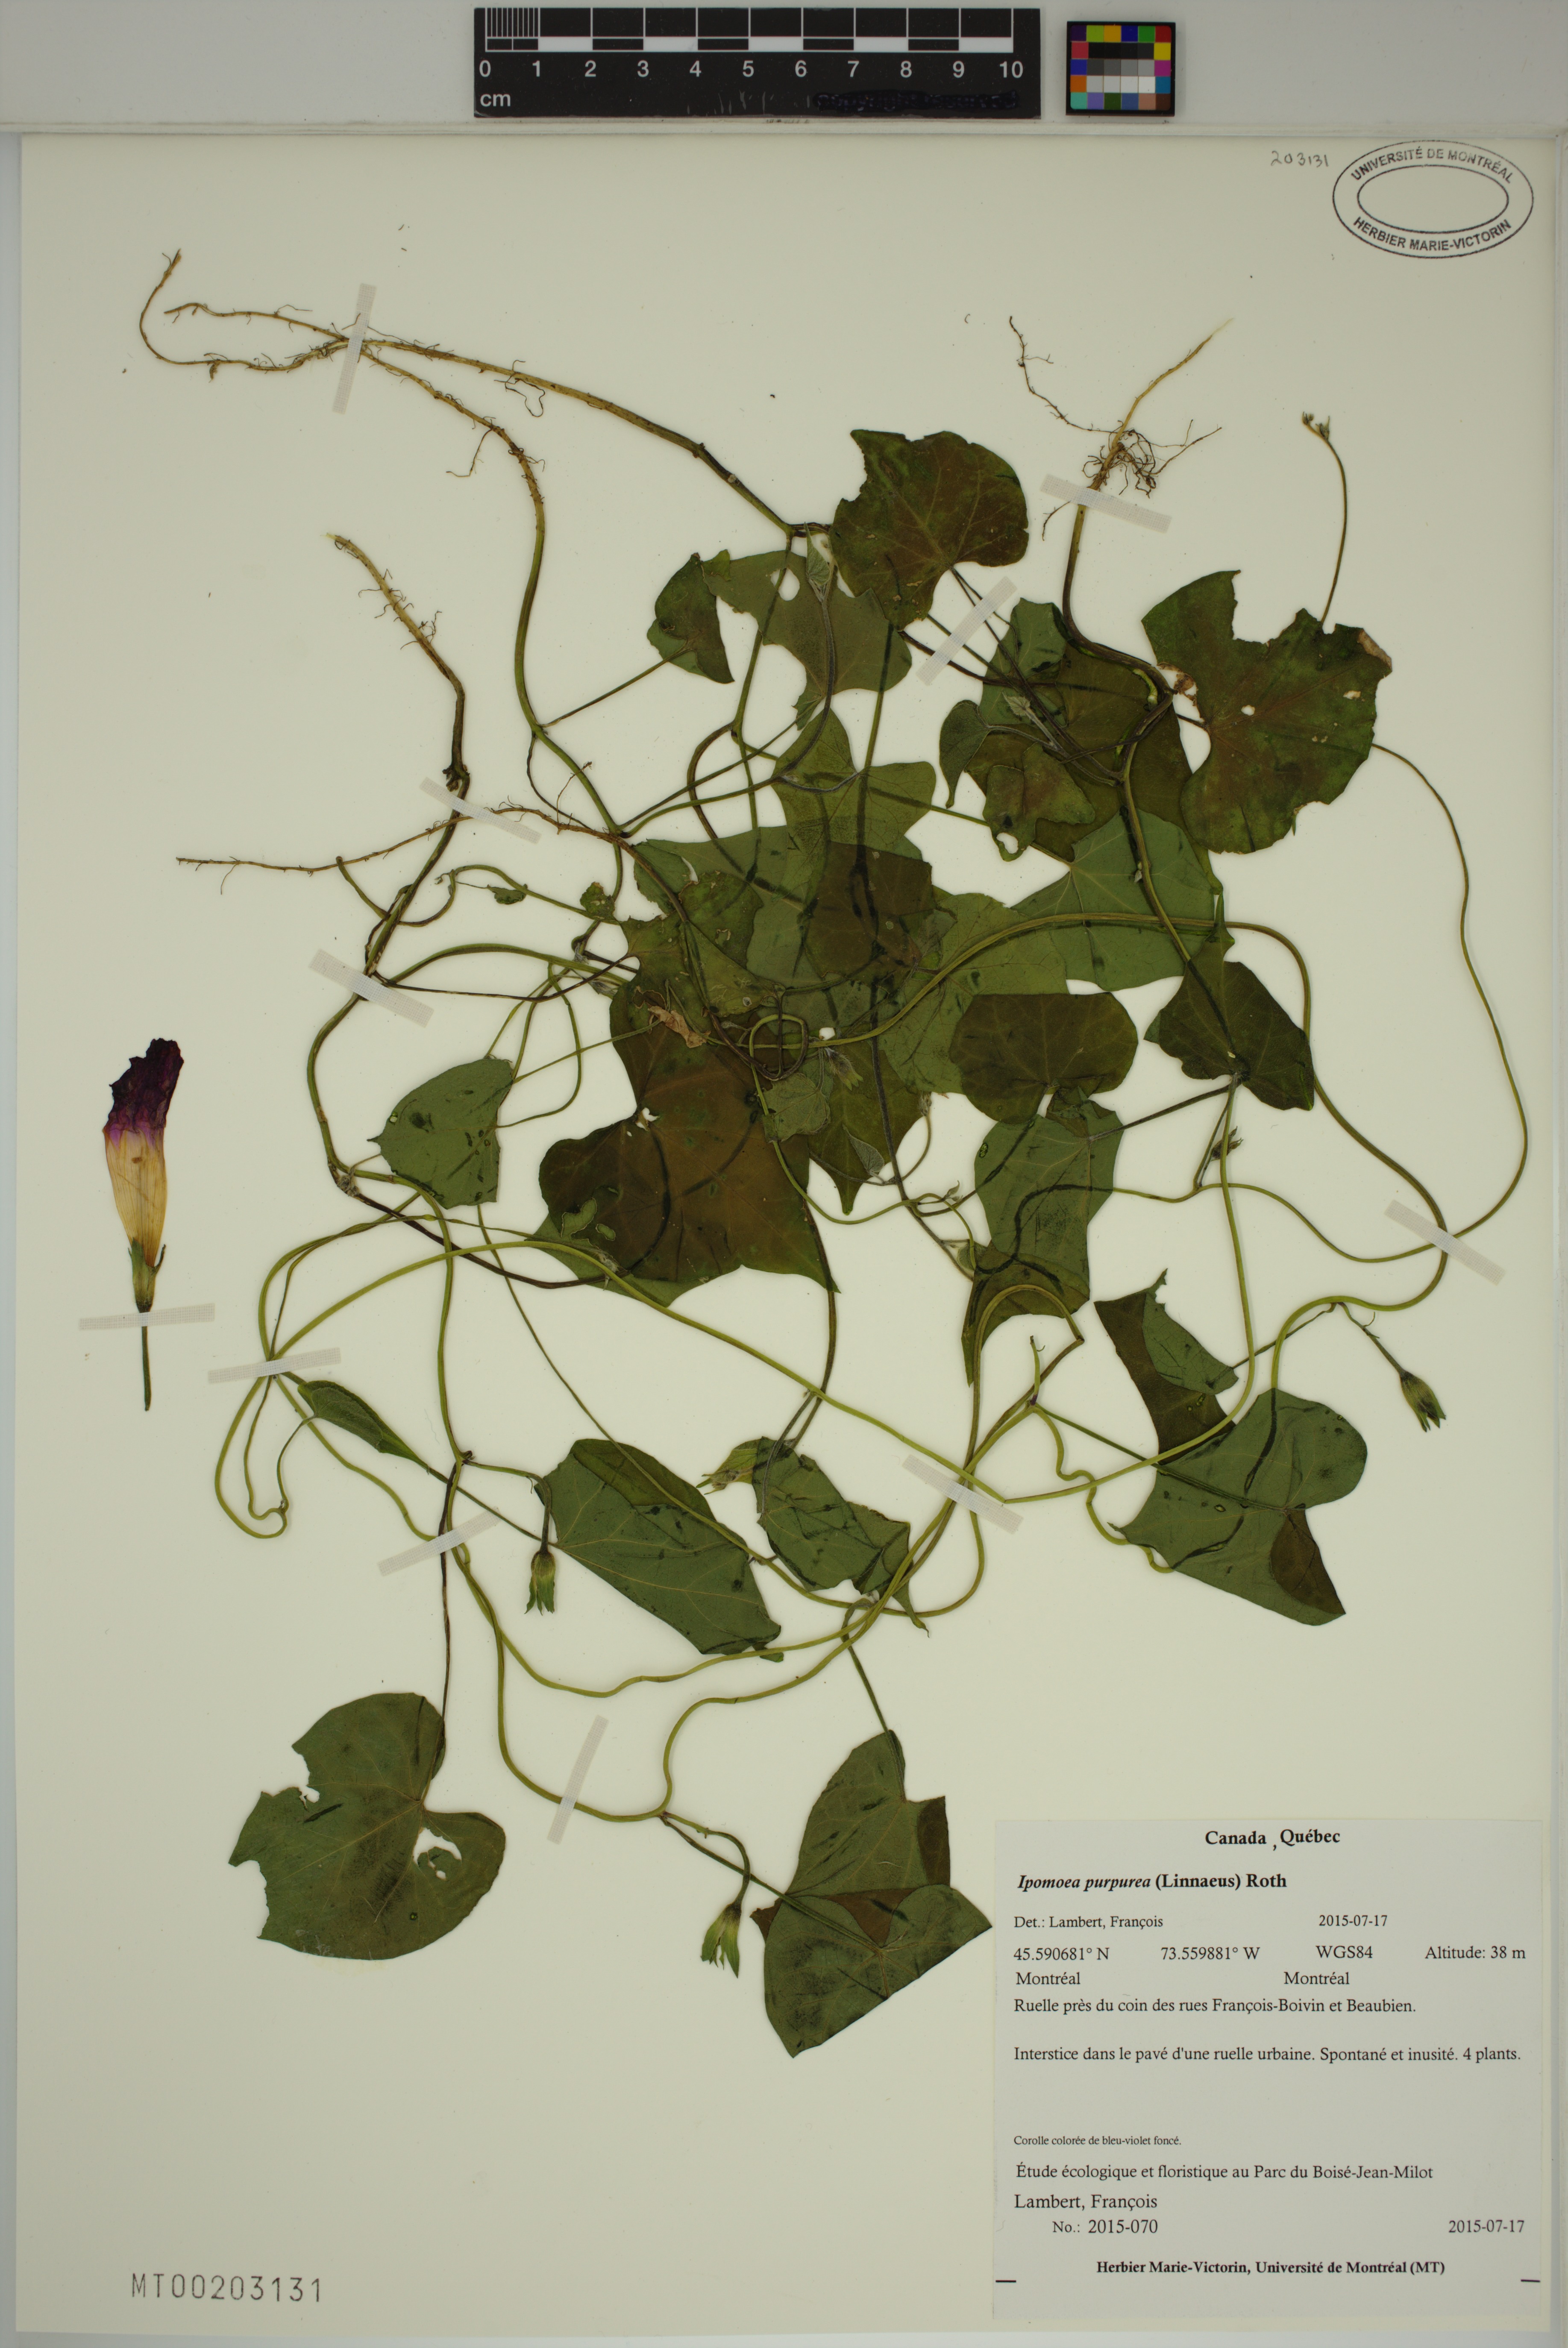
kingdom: Plantae
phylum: Tracheophyta
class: Magnoliopsida
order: Solanales
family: Convolvulaceae
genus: Ipomoea
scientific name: Ipomoea purpurea
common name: Common morning-glory
